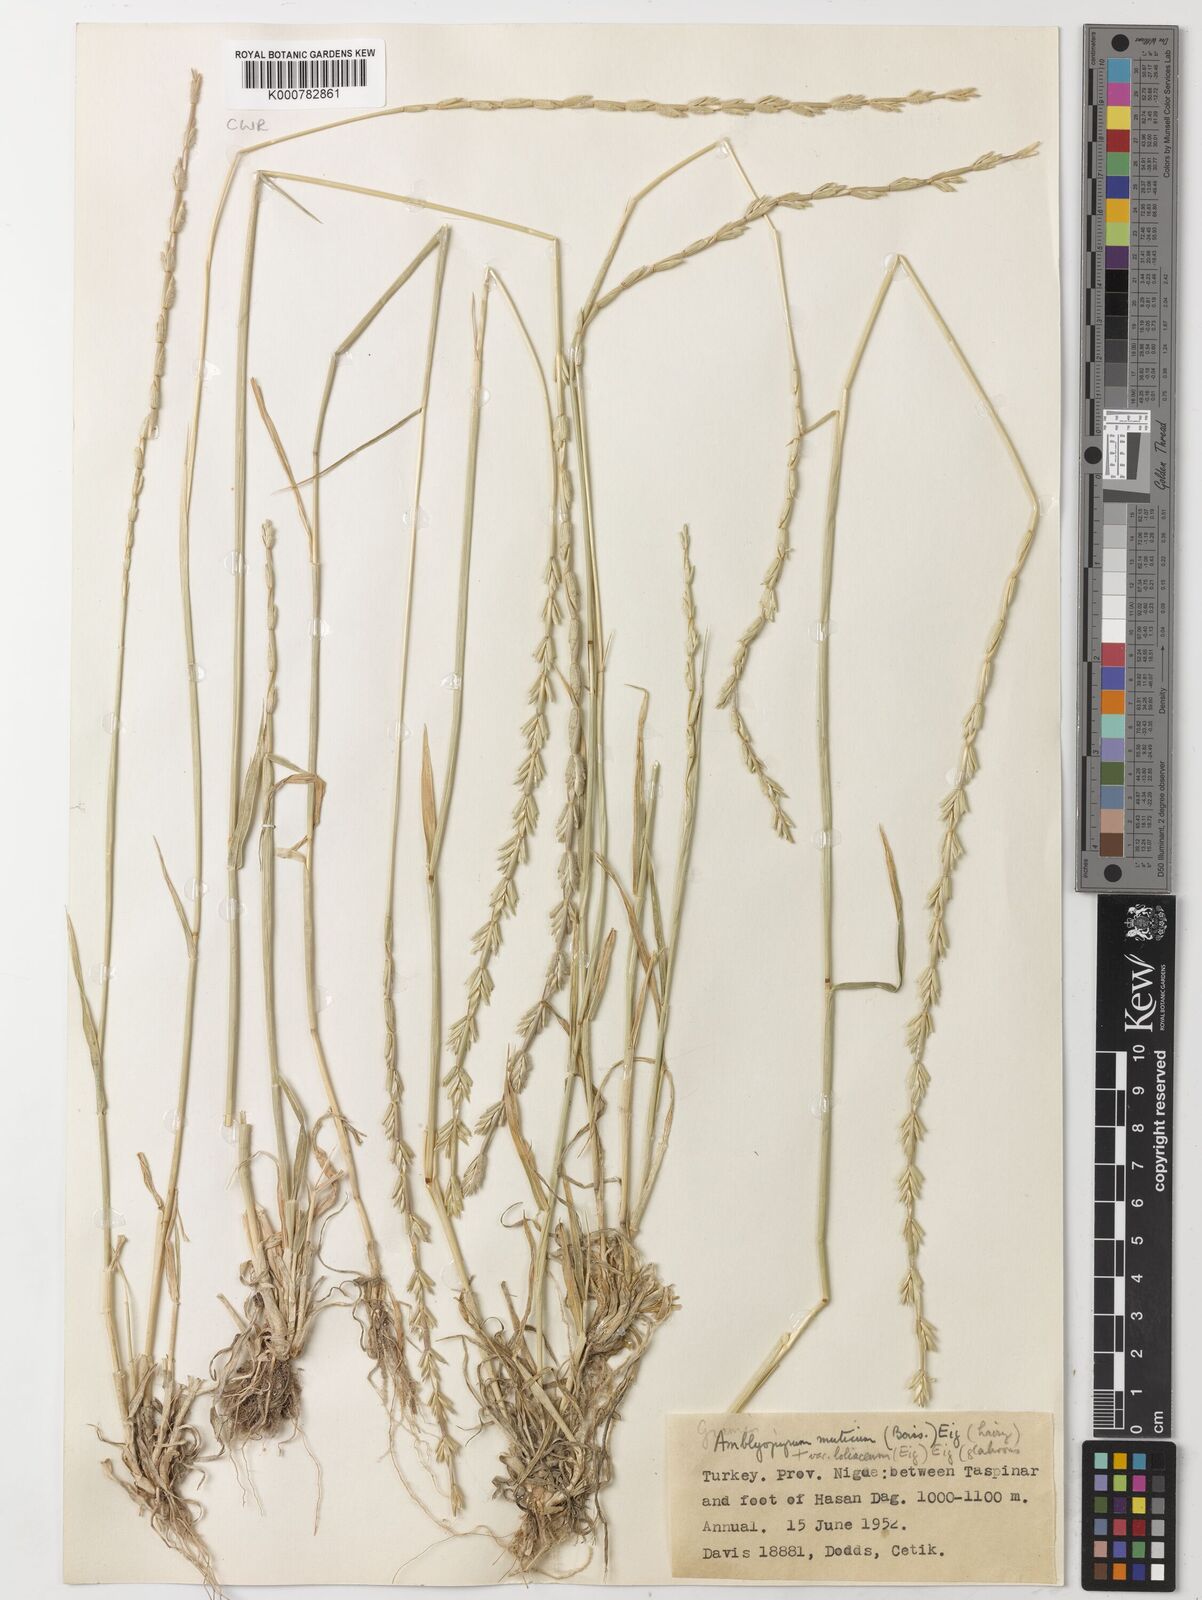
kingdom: Plantae
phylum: Tracheophyta
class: Liliopsida
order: Poales
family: Poaceae
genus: Aegilops
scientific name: Aegilops mutica
